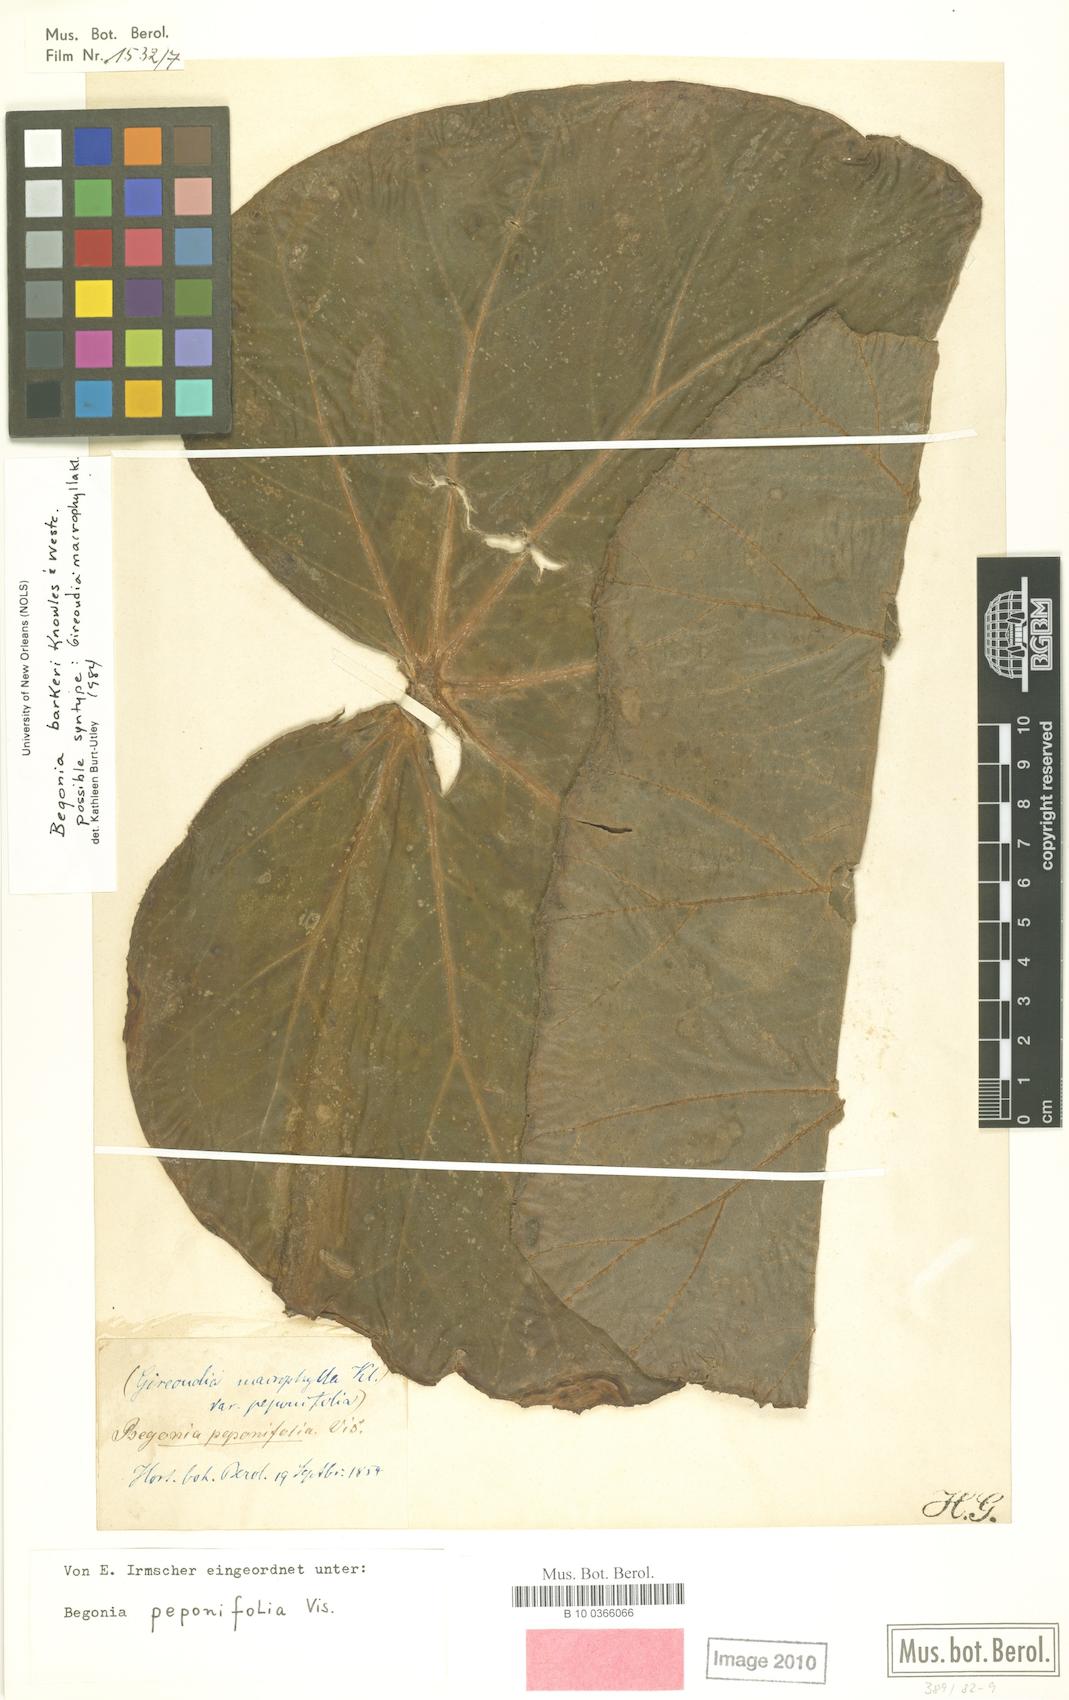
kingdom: Plantae
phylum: Tracheophyta
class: Magnoliopsida
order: Cucurbitales
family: Begoniaceae
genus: Begonia
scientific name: Begonia barkeri
